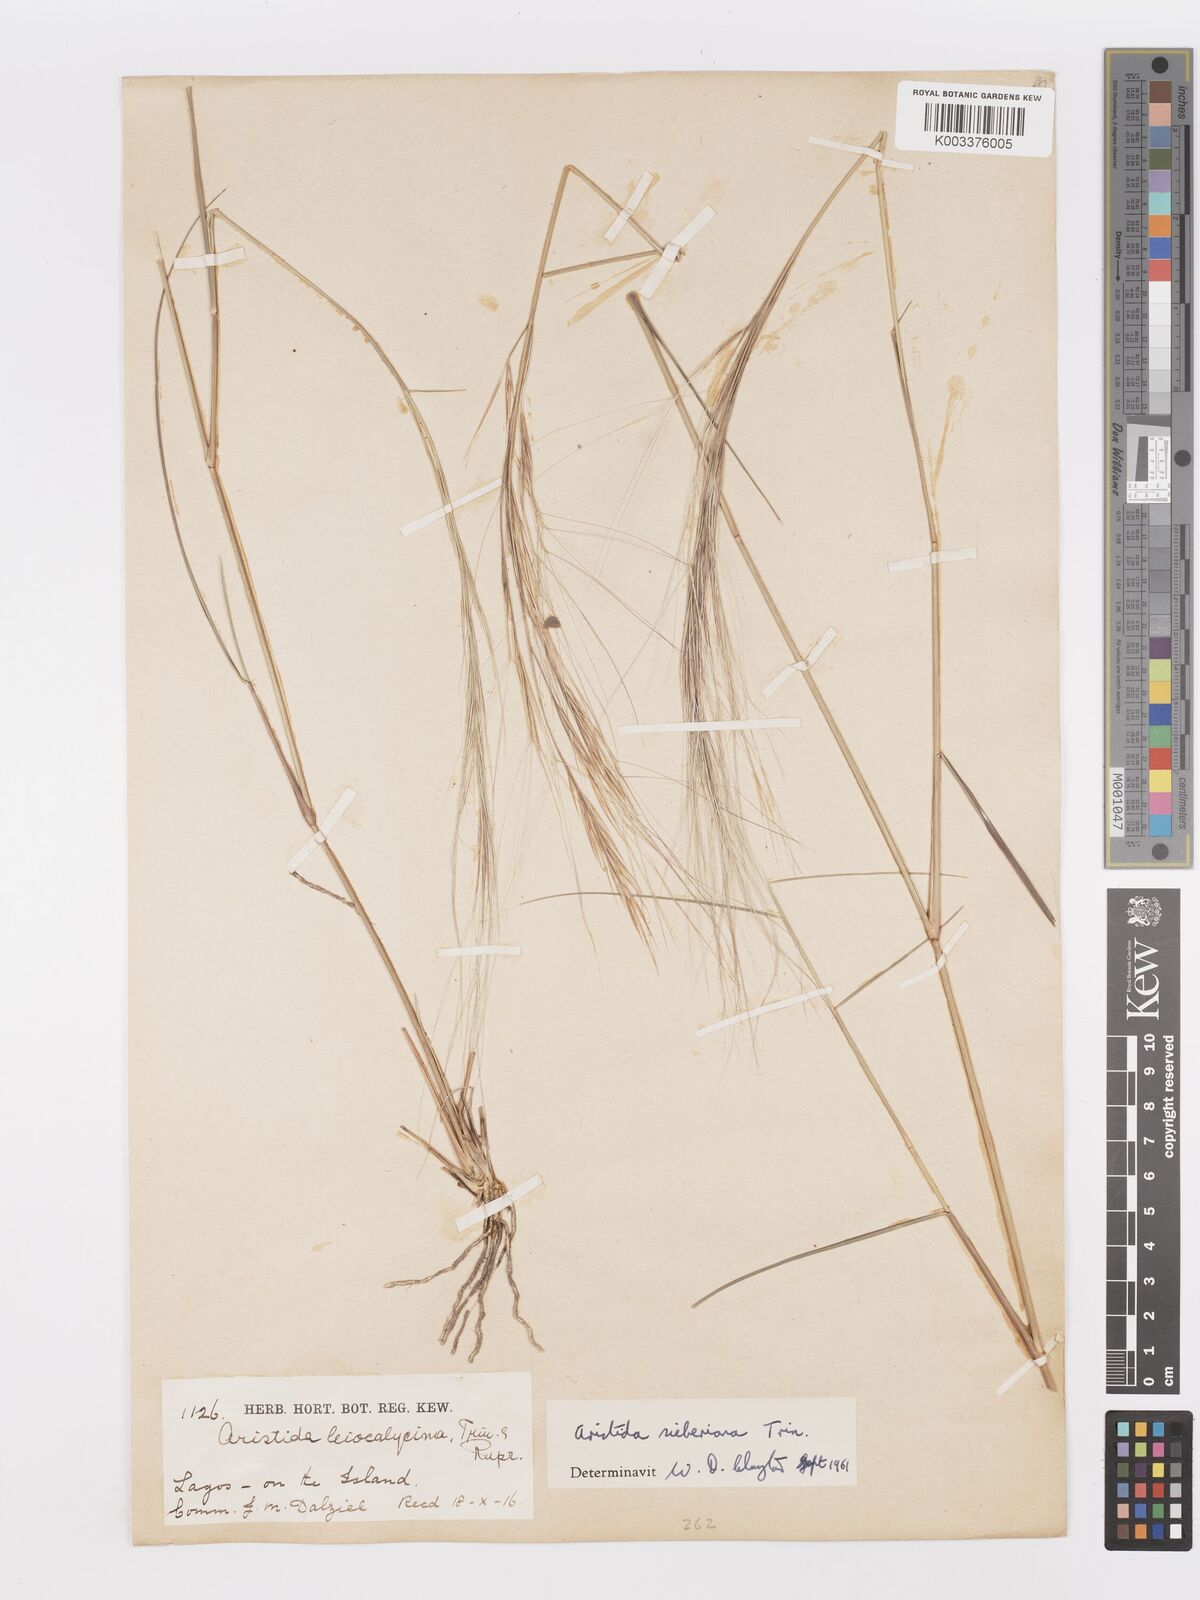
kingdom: Plantae
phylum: Tracheophyta
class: Liliopsida
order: Poales
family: Poaceae
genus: Aristida
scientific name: Aristida sieberiana
